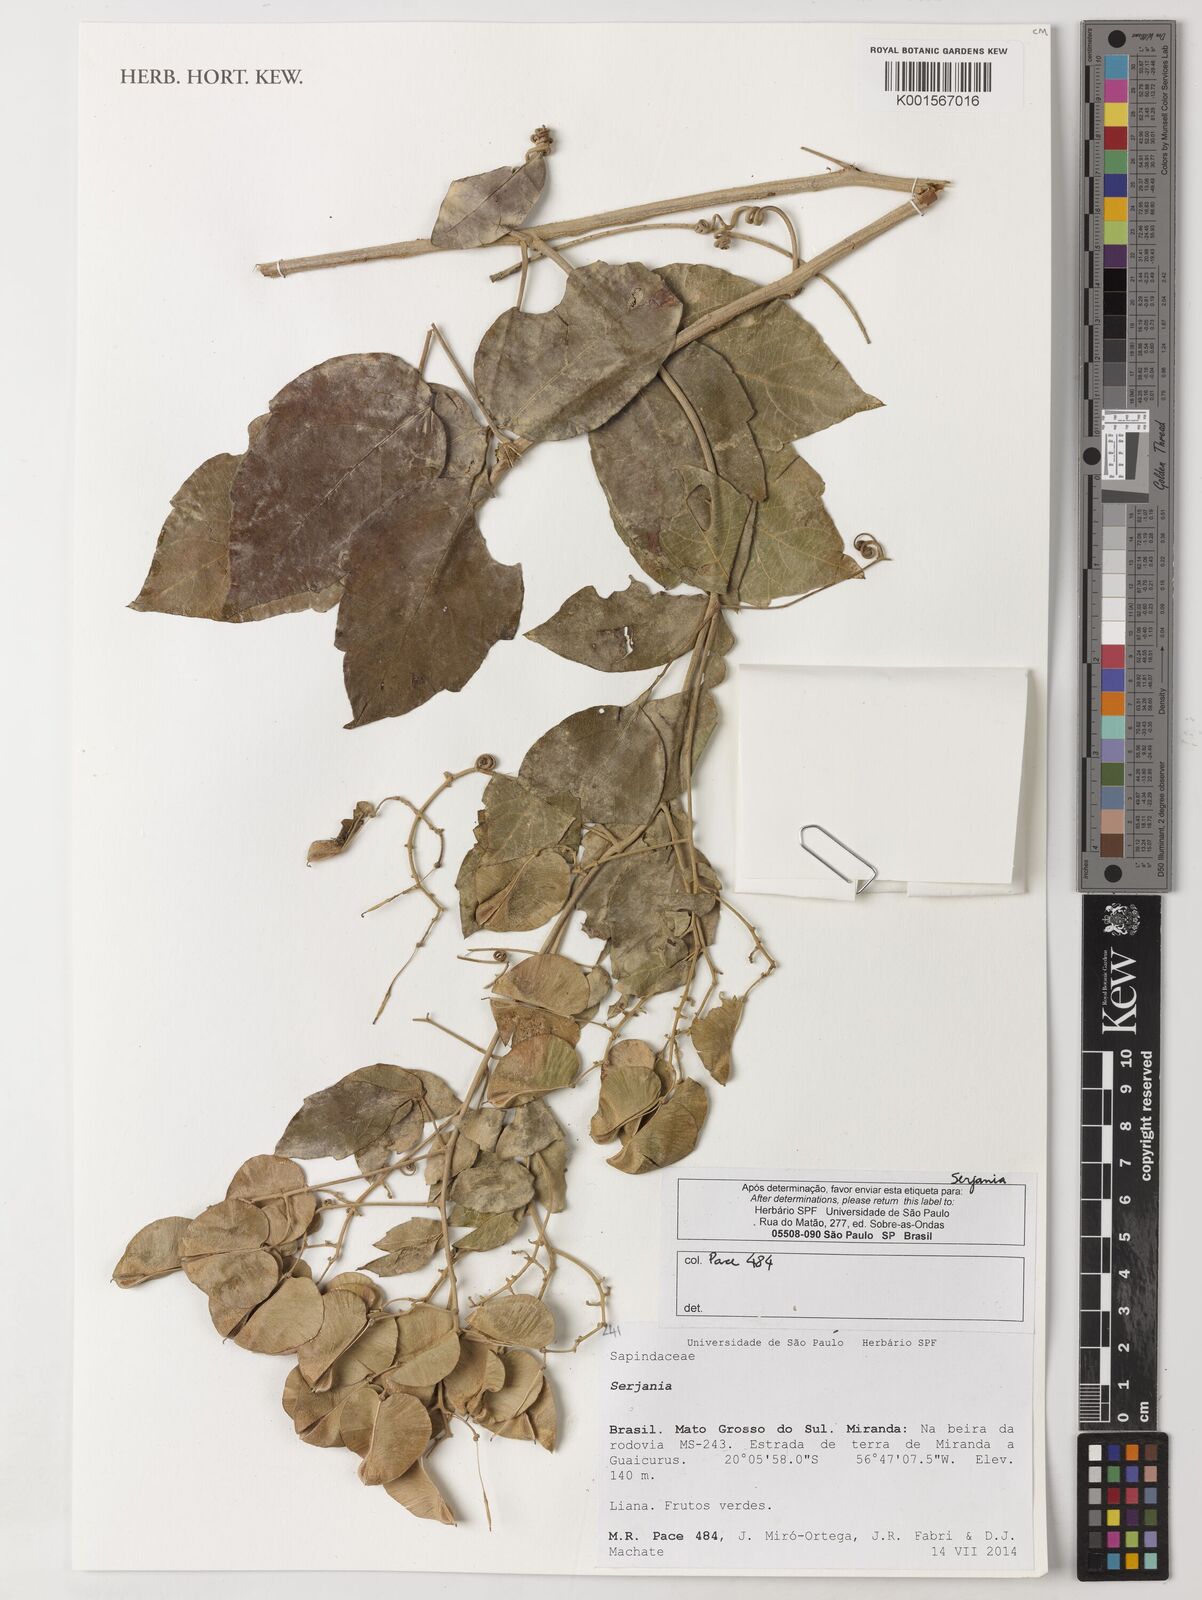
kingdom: Plantae
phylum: Tracheophyta
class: Magnoliopsida
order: Sapindales
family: Sapindaceae
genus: Serjania
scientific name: Serjania
